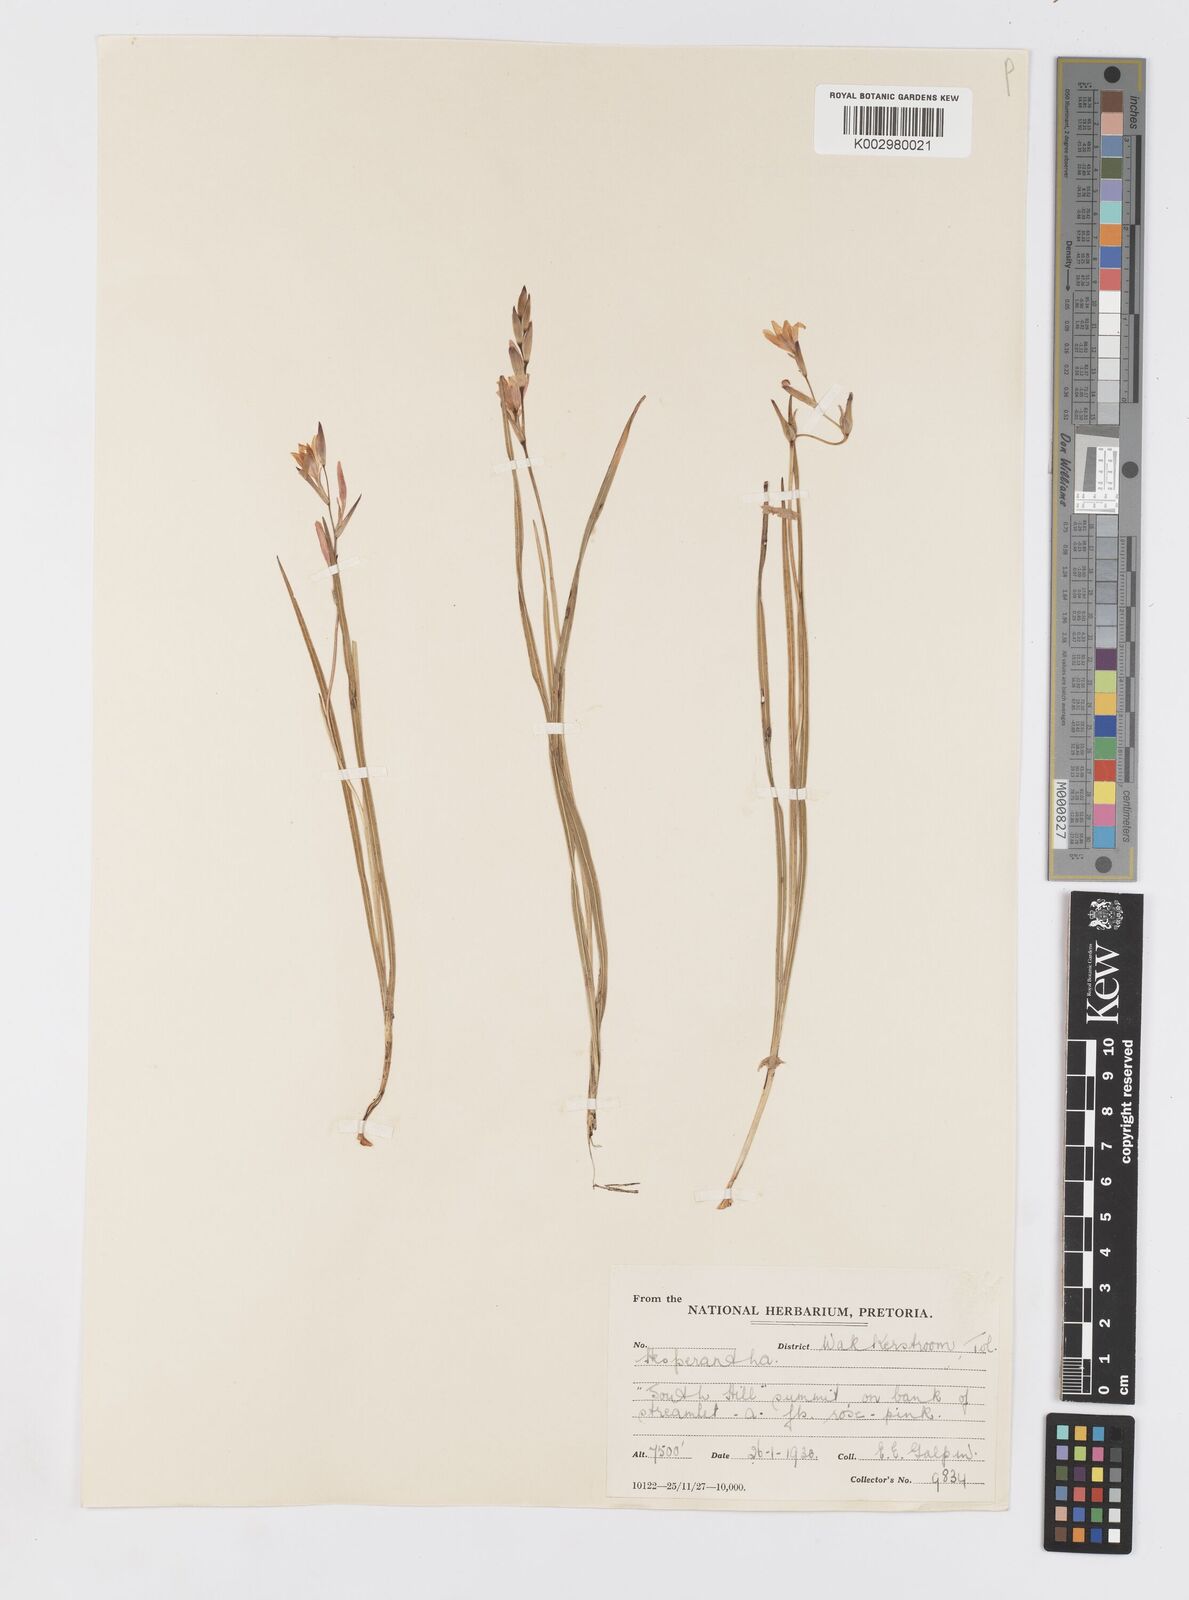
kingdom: Plantae
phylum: Tracheophyta
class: Liliopsida
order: Asparagales
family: Iridaceae
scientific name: Iridaceae
